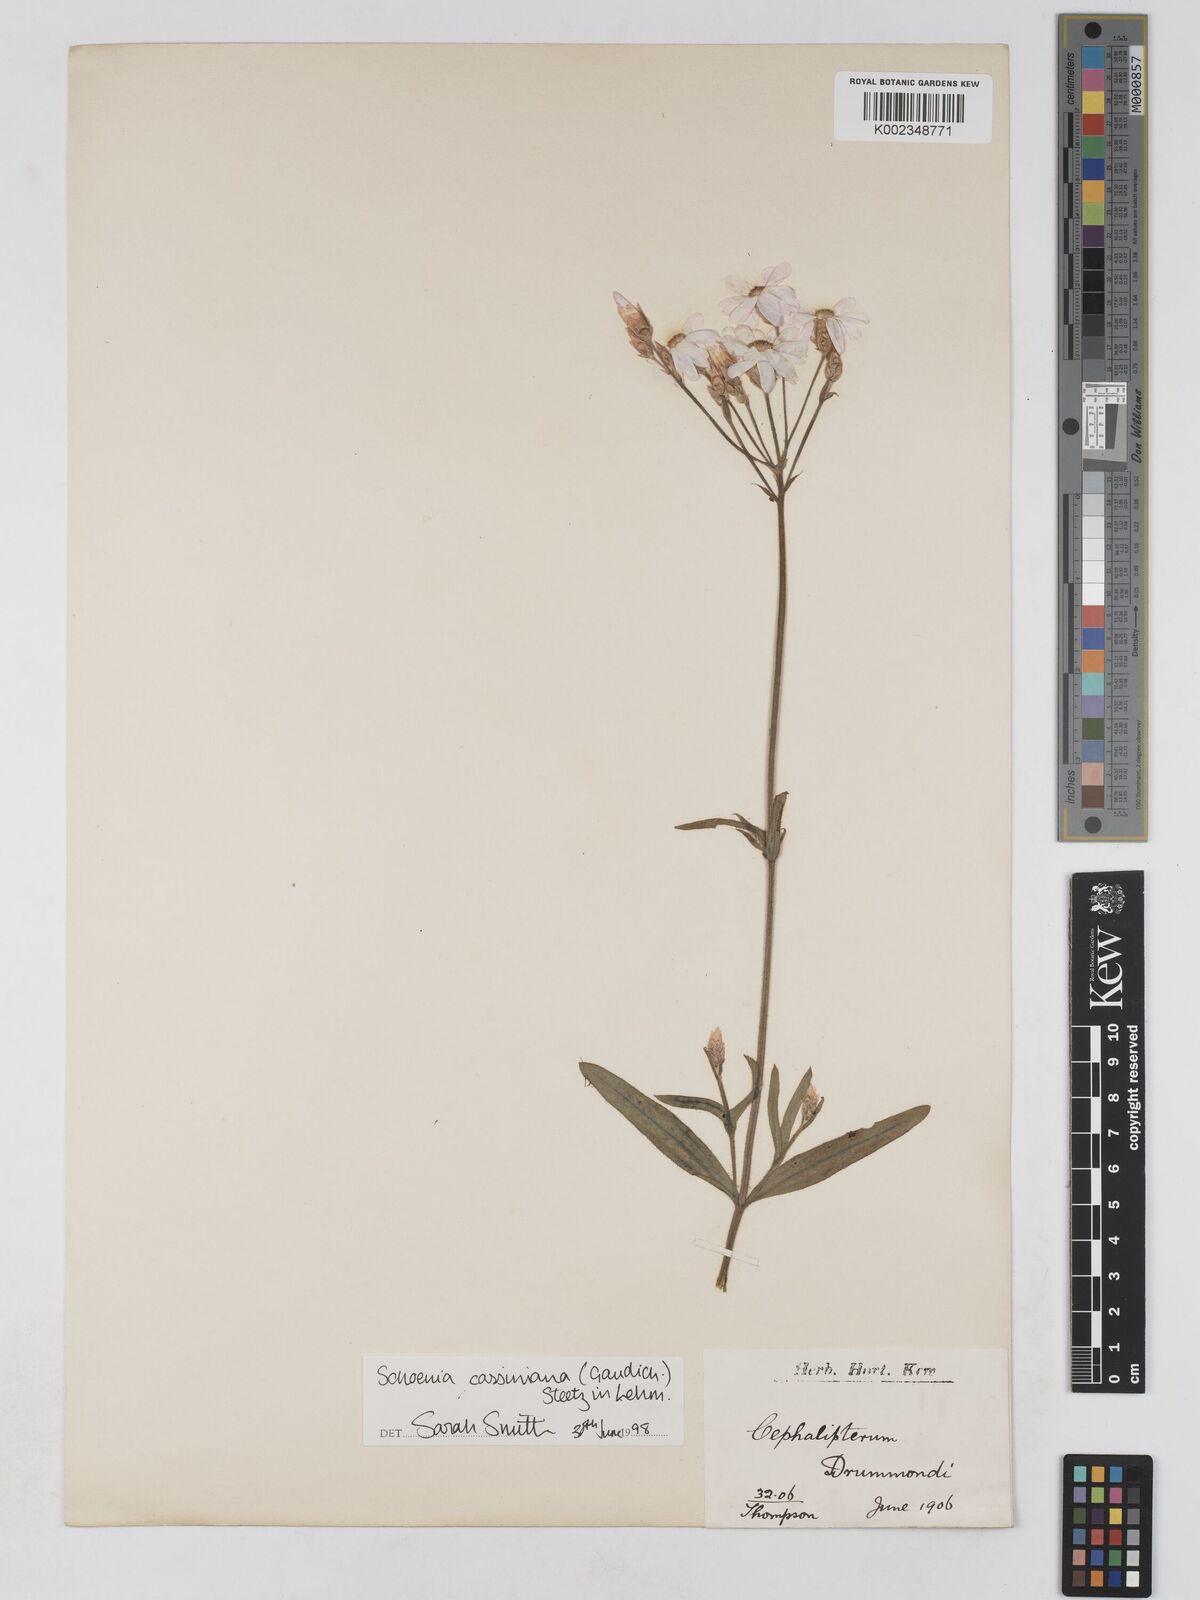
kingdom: Plantae
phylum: Tracheophyta
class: Magnoliopsida
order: Asterales
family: Asteraceae
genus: Schoenia
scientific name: Schoenia cassiniana
